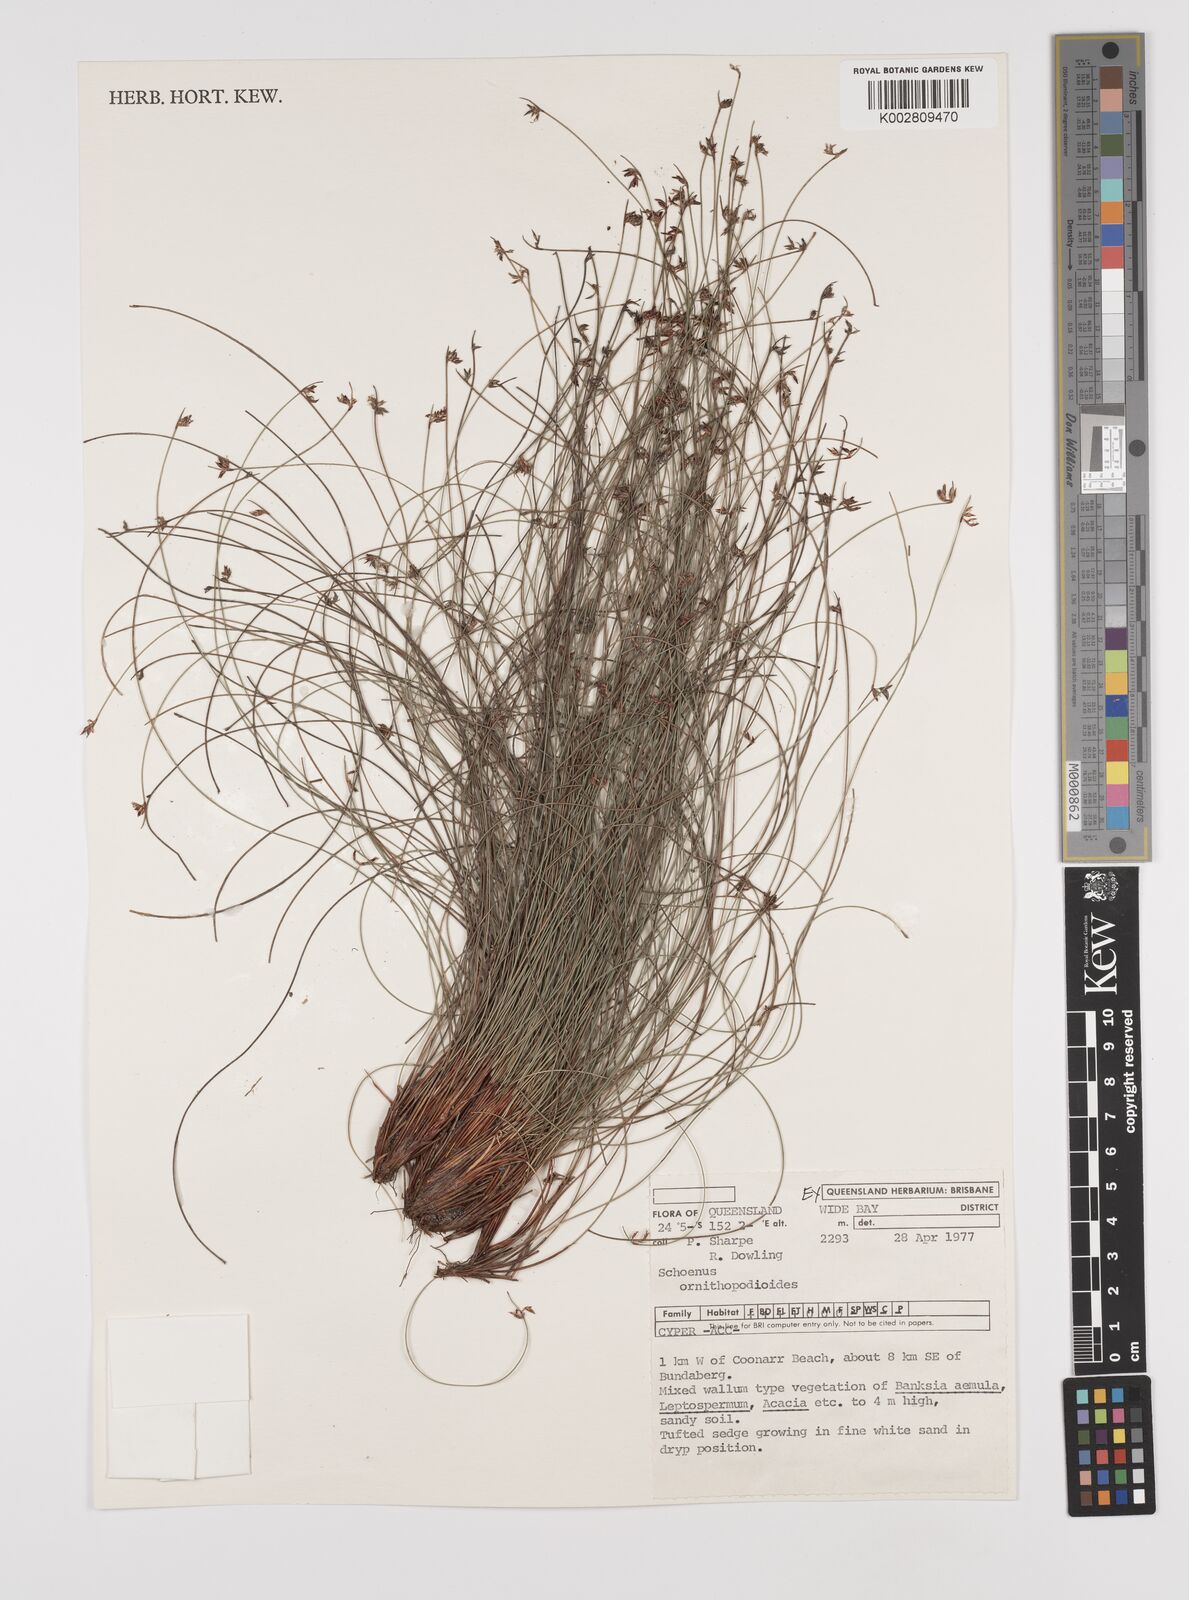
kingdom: Plantae
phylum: Tracheophyta
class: Liliopsida
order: Poales
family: Cyperaceae
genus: Schoenus
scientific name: Schoenus ornithopodioides
